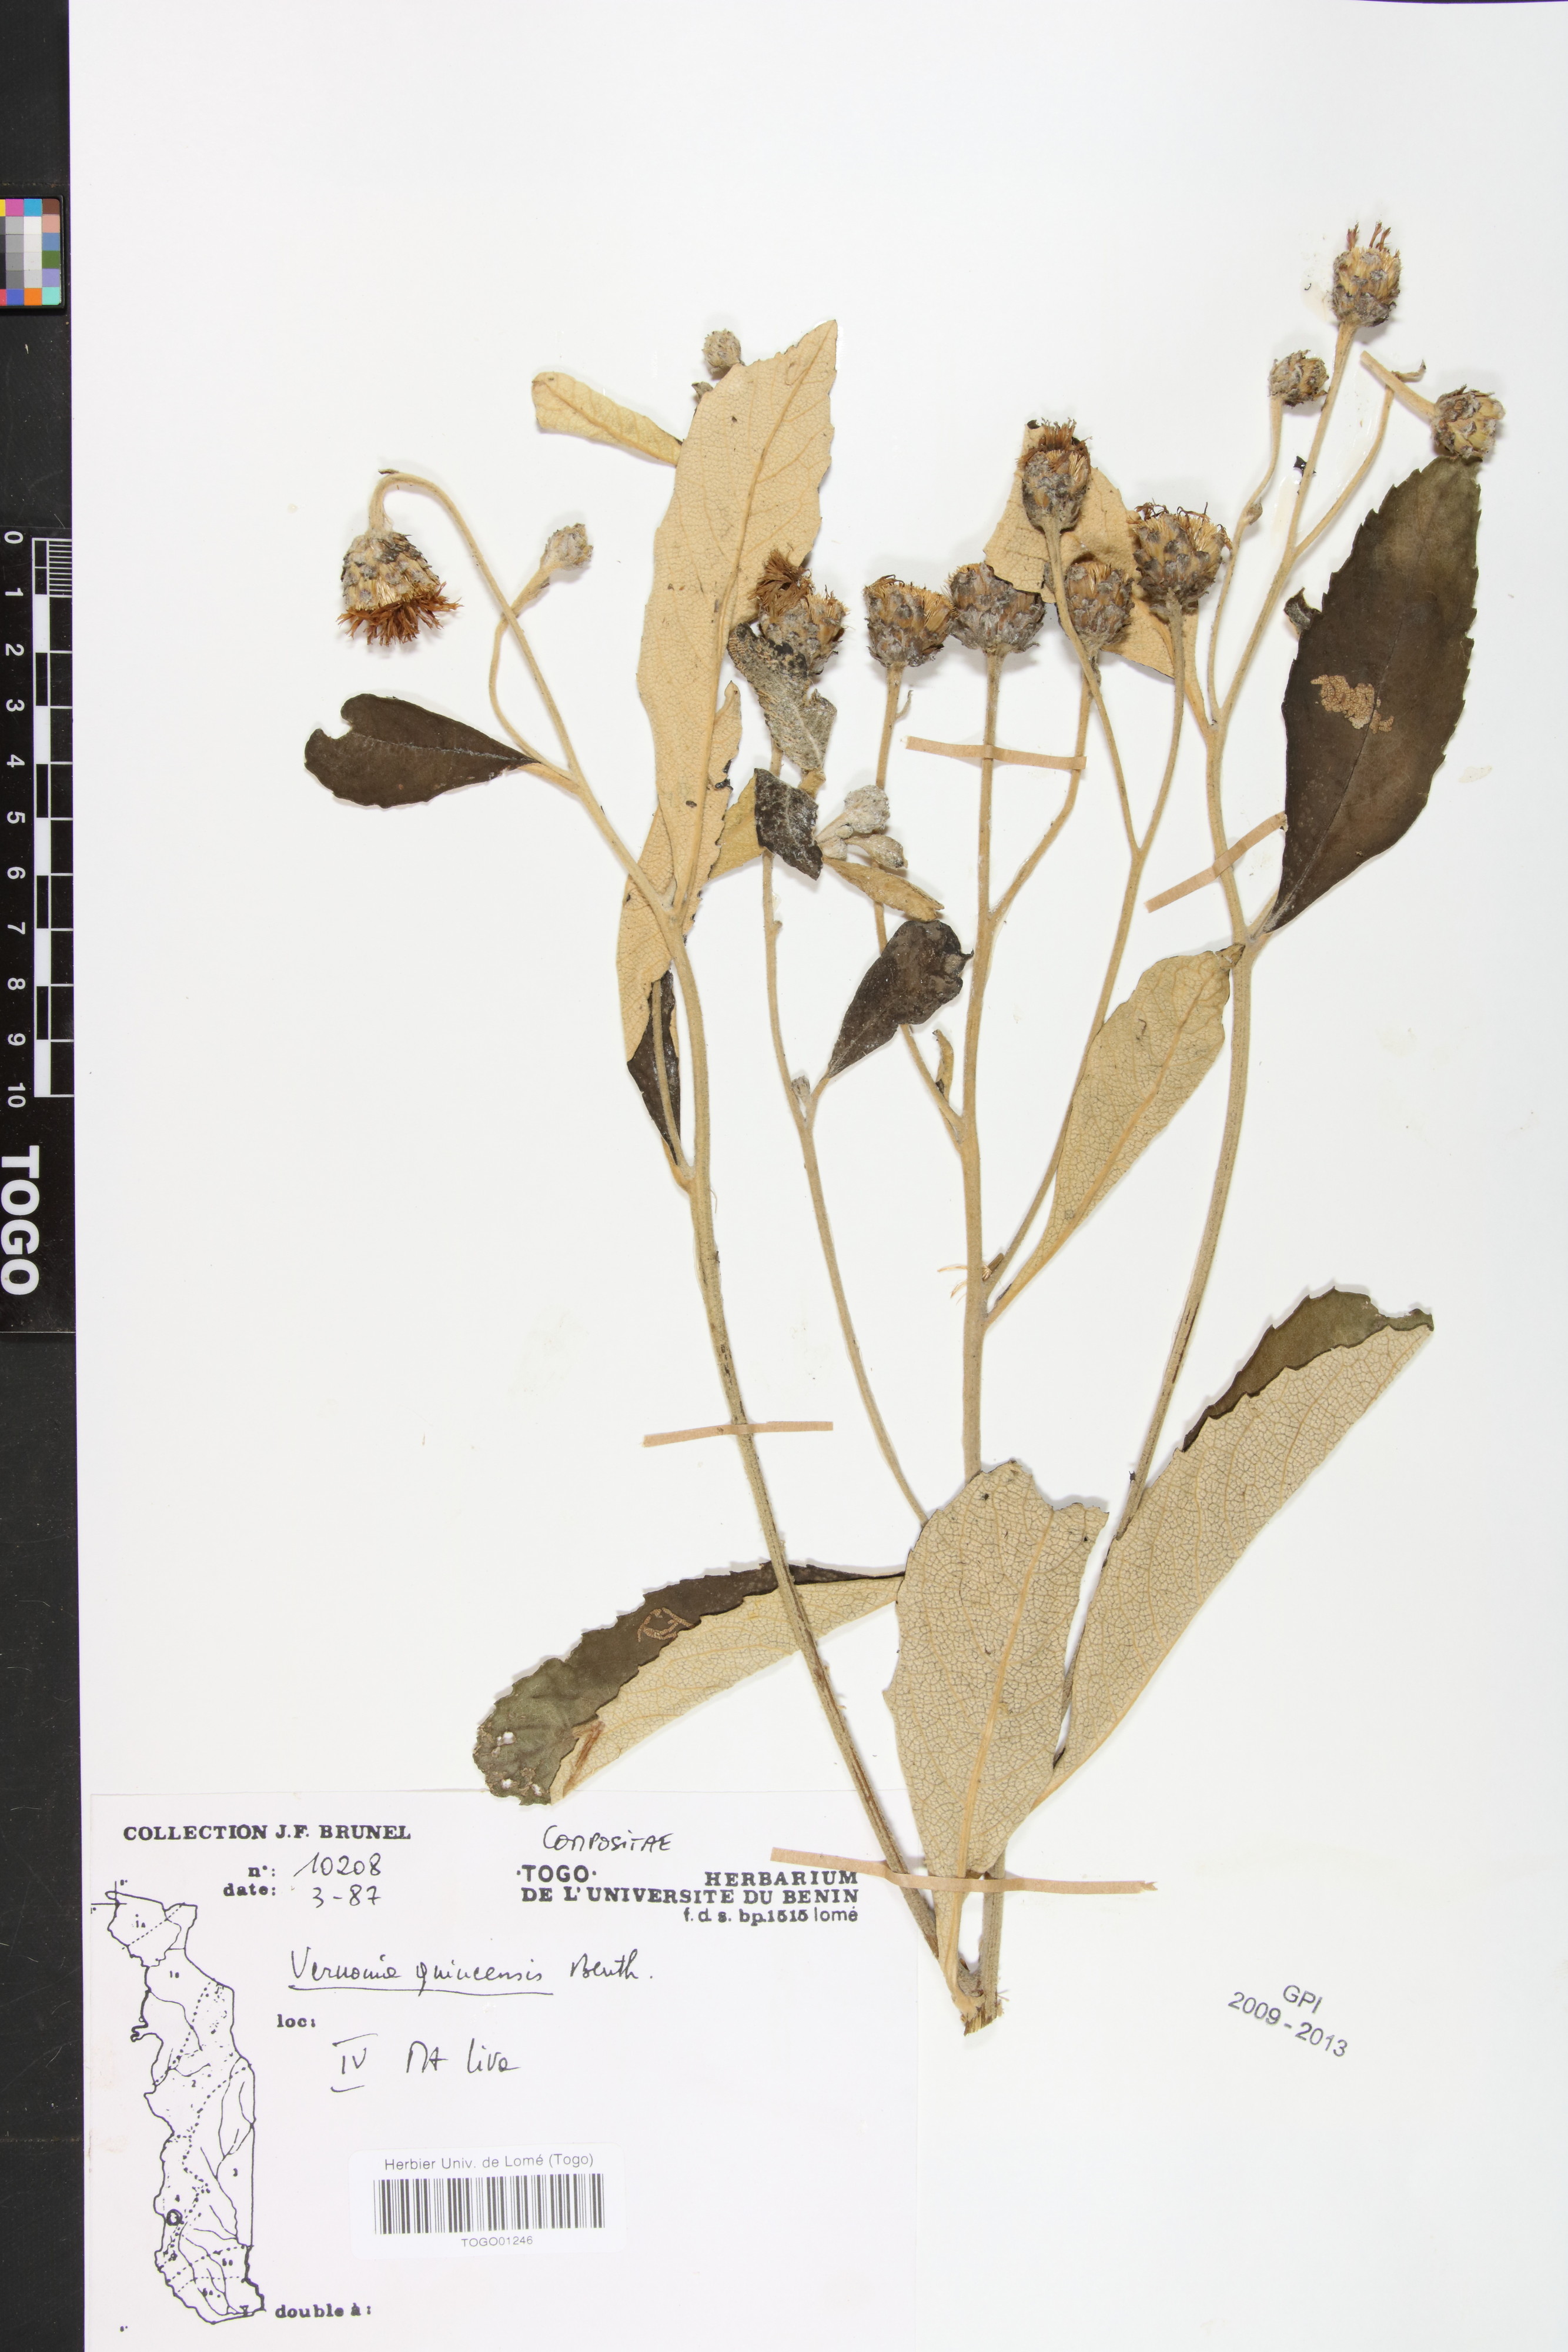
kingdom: Plantae
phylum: Tracheophyta
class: Magnoliopsida
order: Asterales
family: Asteraceae
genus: Baccharoides
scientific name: Baccharoides guineensis
